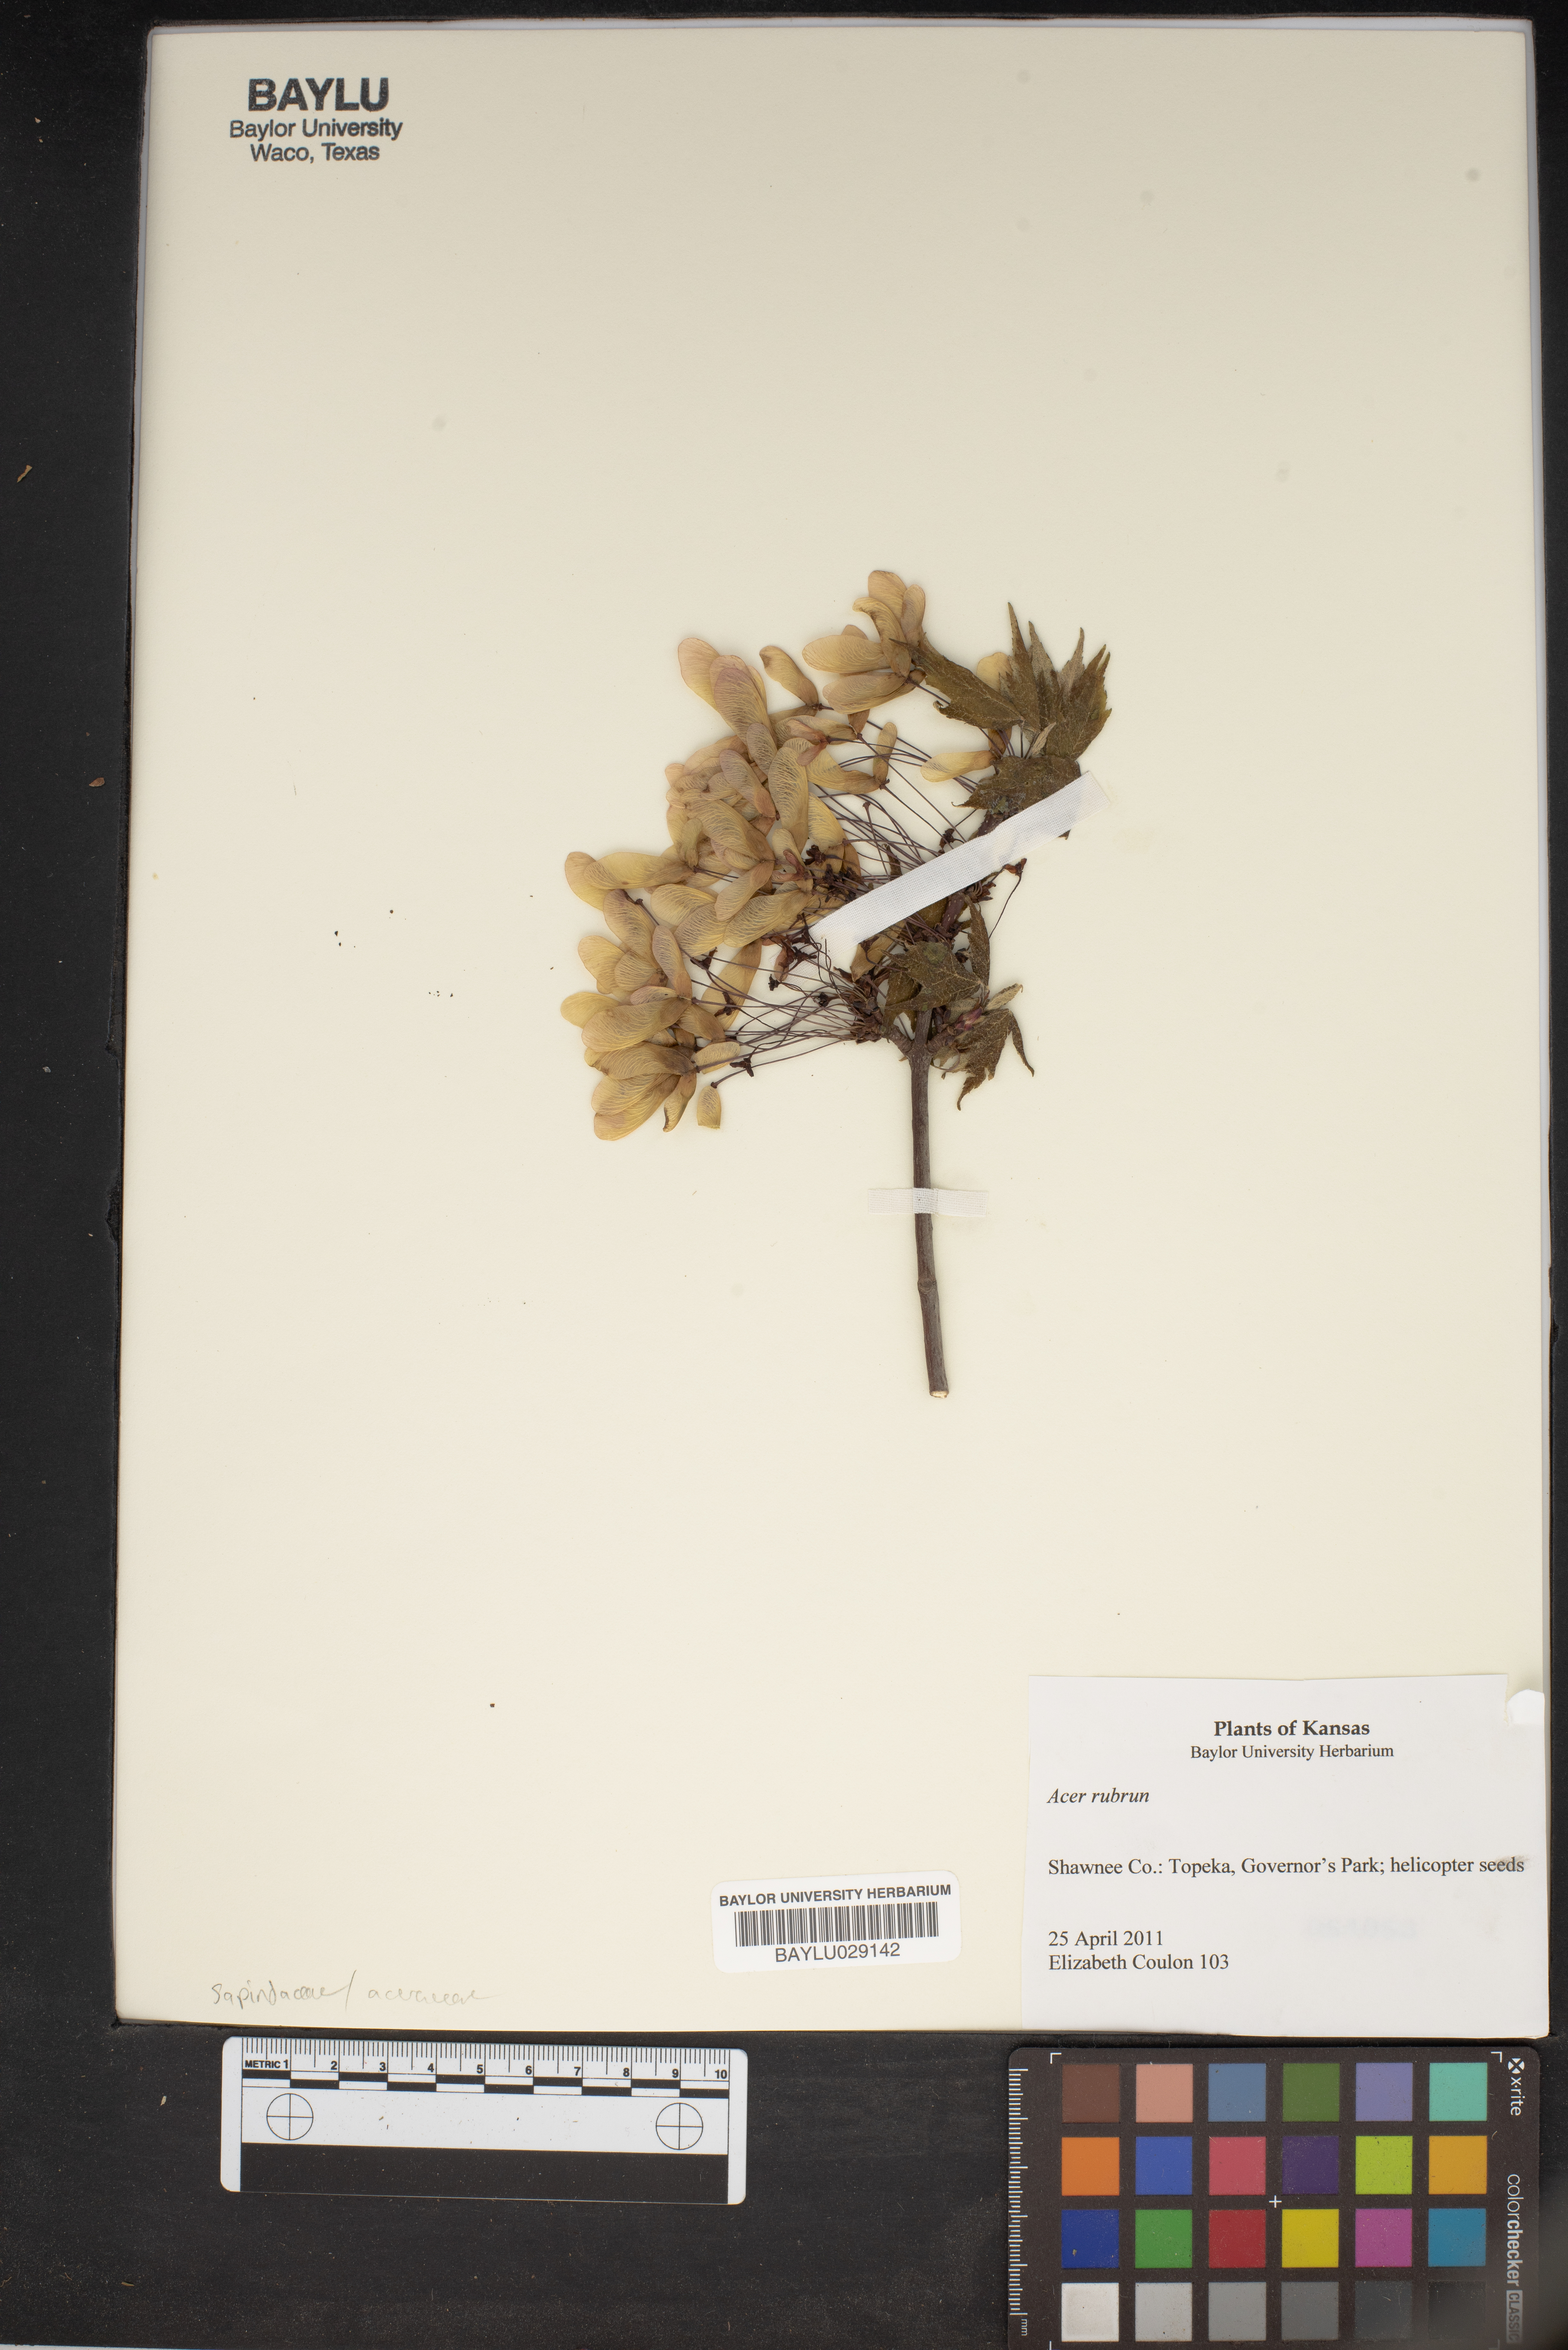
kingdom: Plantae
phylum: Tracheophyta
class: Magnoliopsida
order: Sapindales
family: Sapindaceae
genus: Acer
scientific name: Acer rubrum
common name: Red maple
